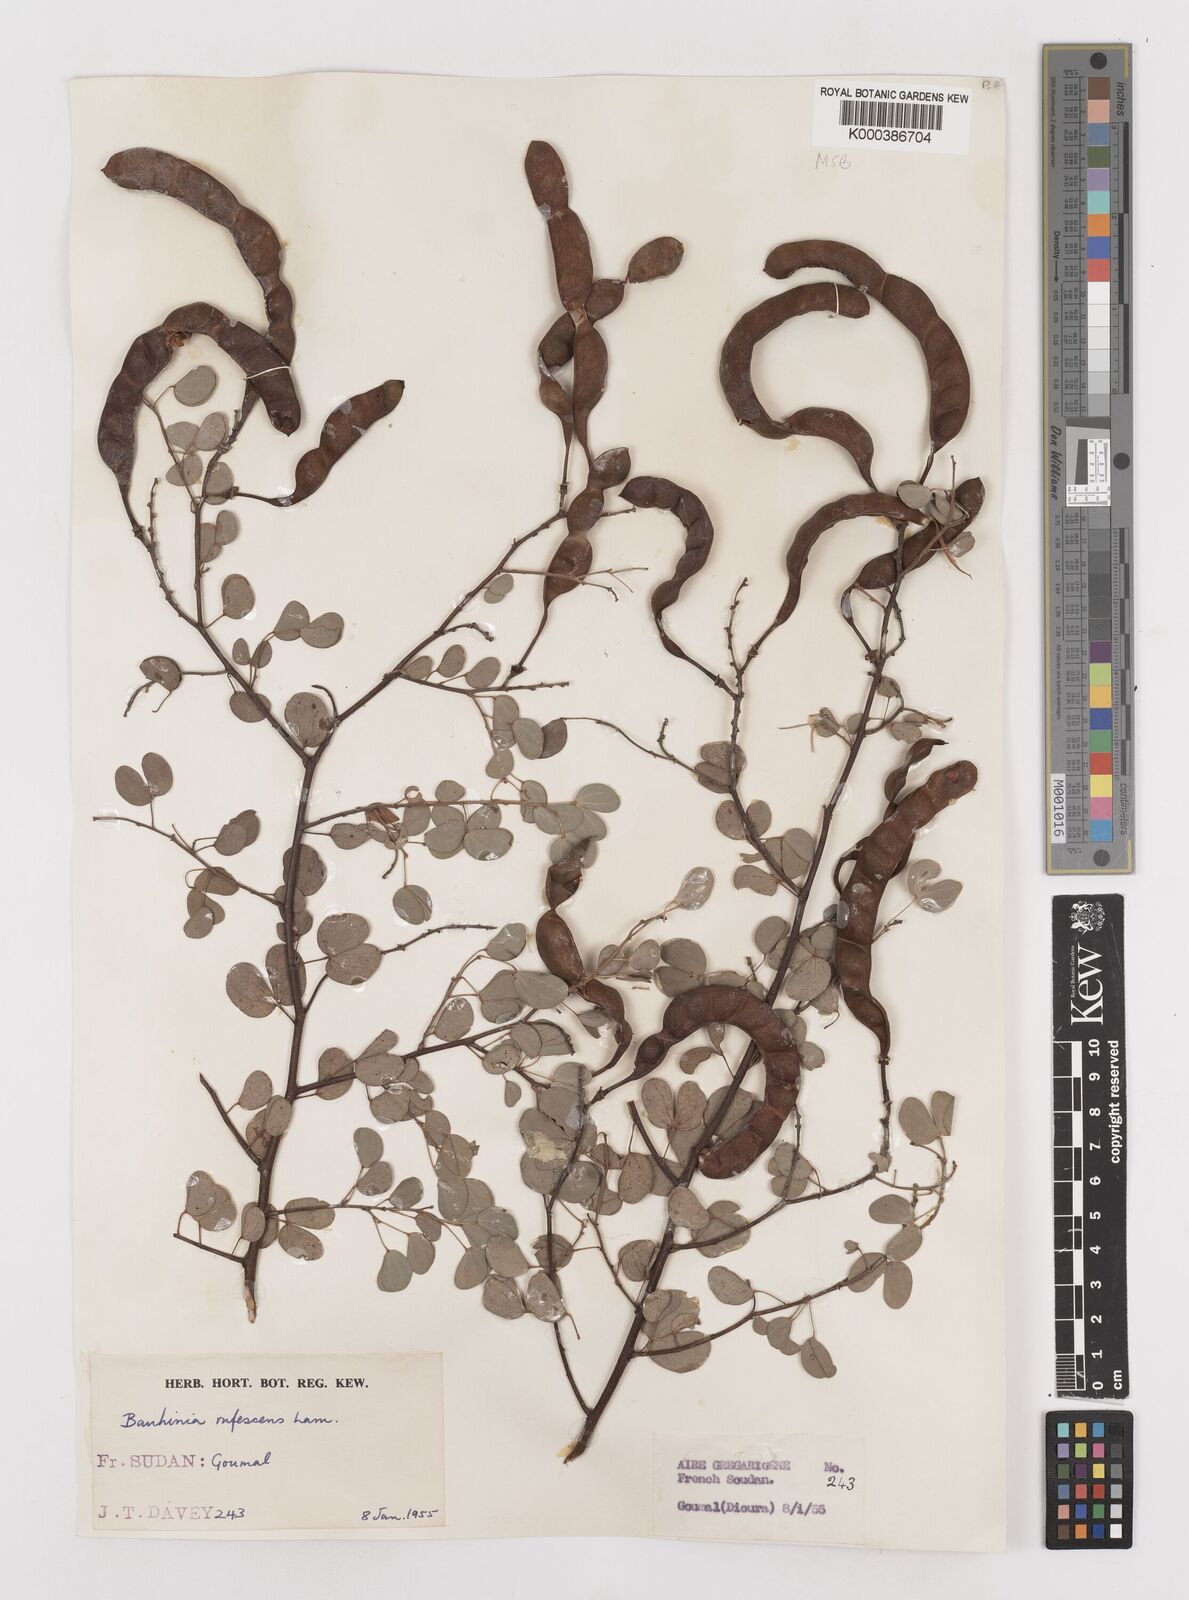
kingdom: Plantae
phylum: Tracheophyta
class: Magnoliopsida
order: Fabales
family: Fabaceae
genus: Bauhinia
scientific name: Bauhinia rufescens
